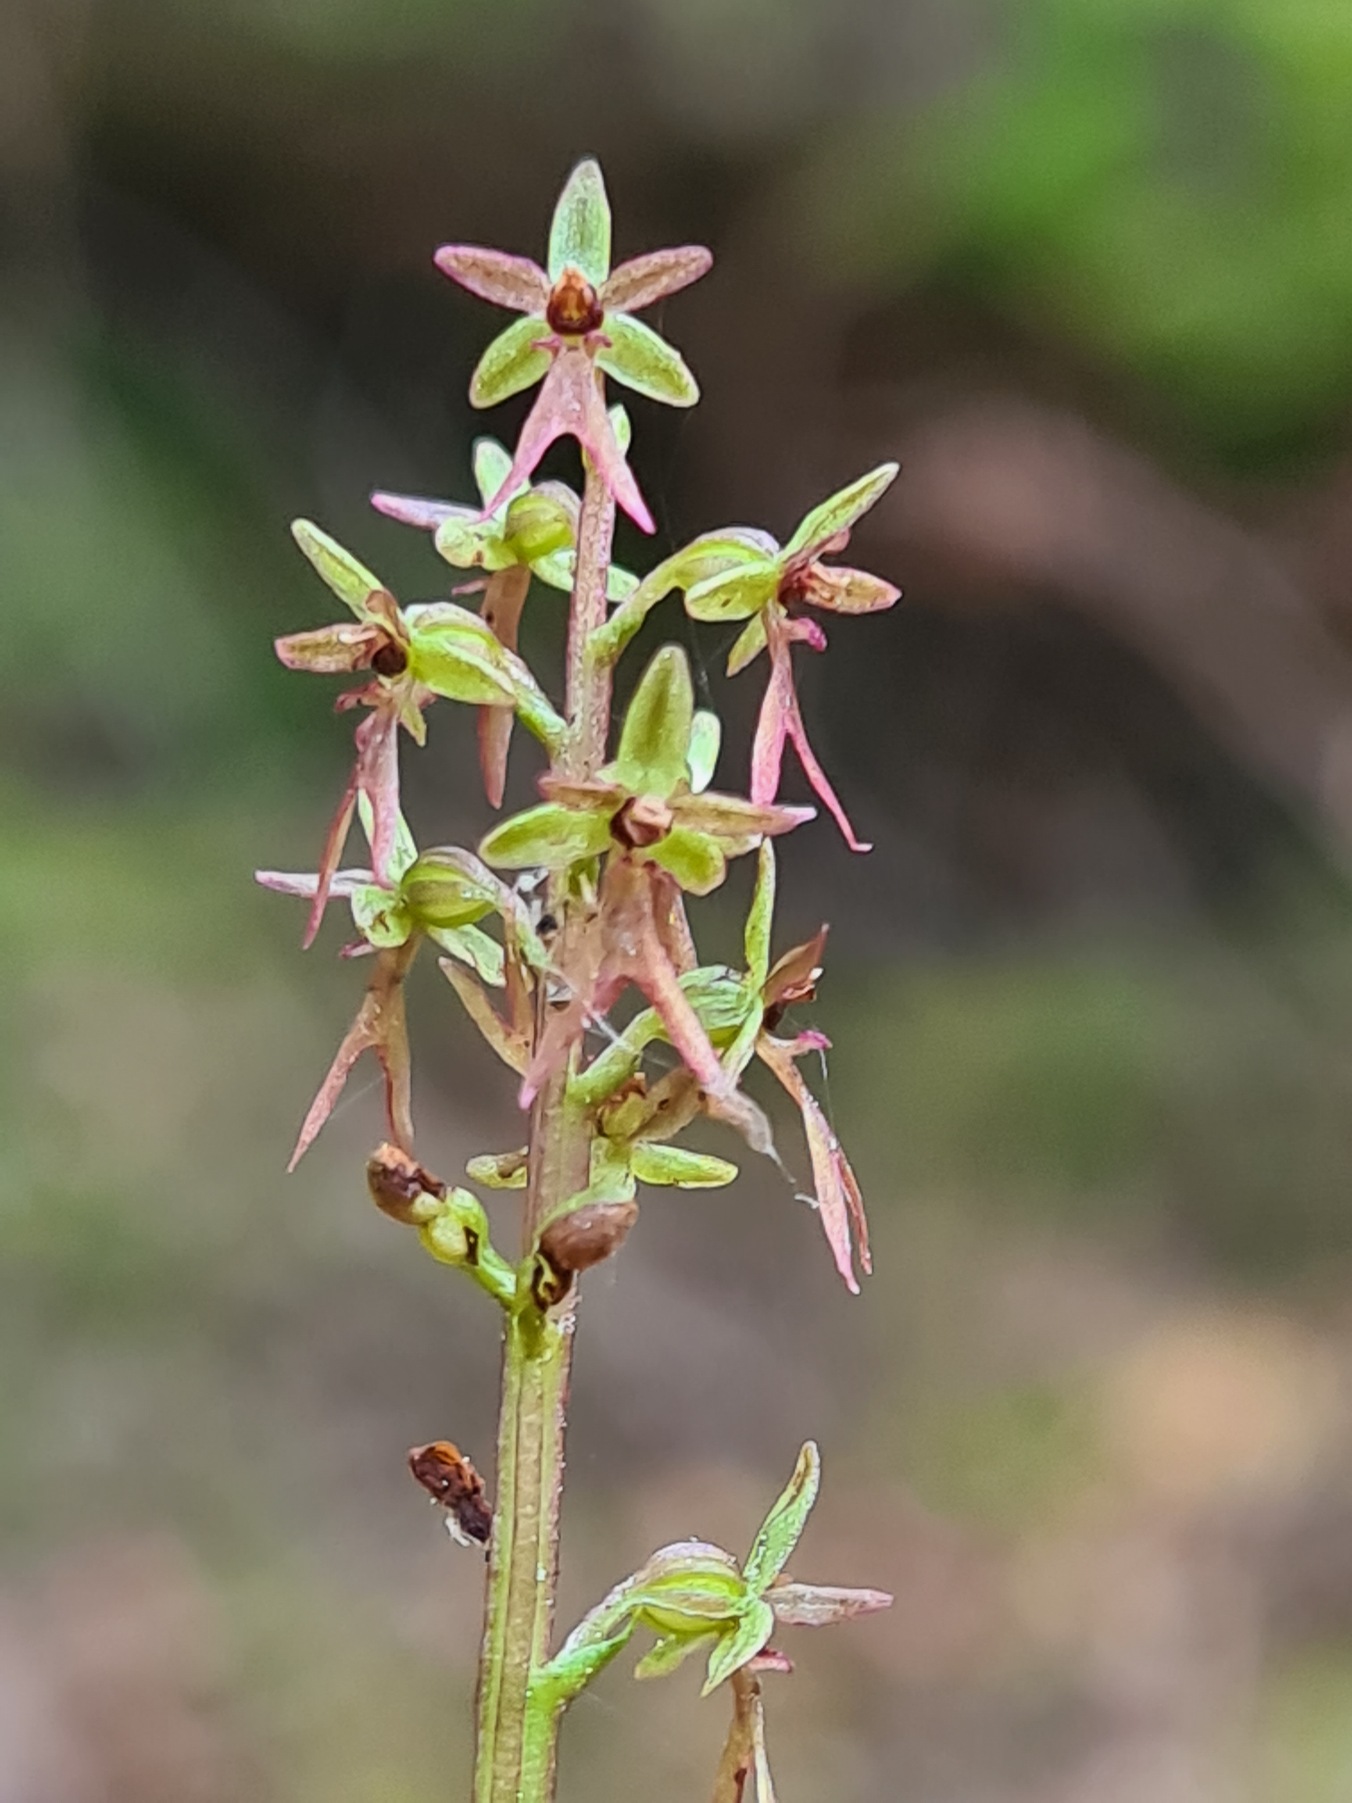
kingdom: Plantae
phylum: Tracheophyta
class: Liliopsida
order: Asparagales
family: Orchidaceae
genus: Neottia
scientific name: Neottia cordata
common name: Hjertebladet fliglæbe
